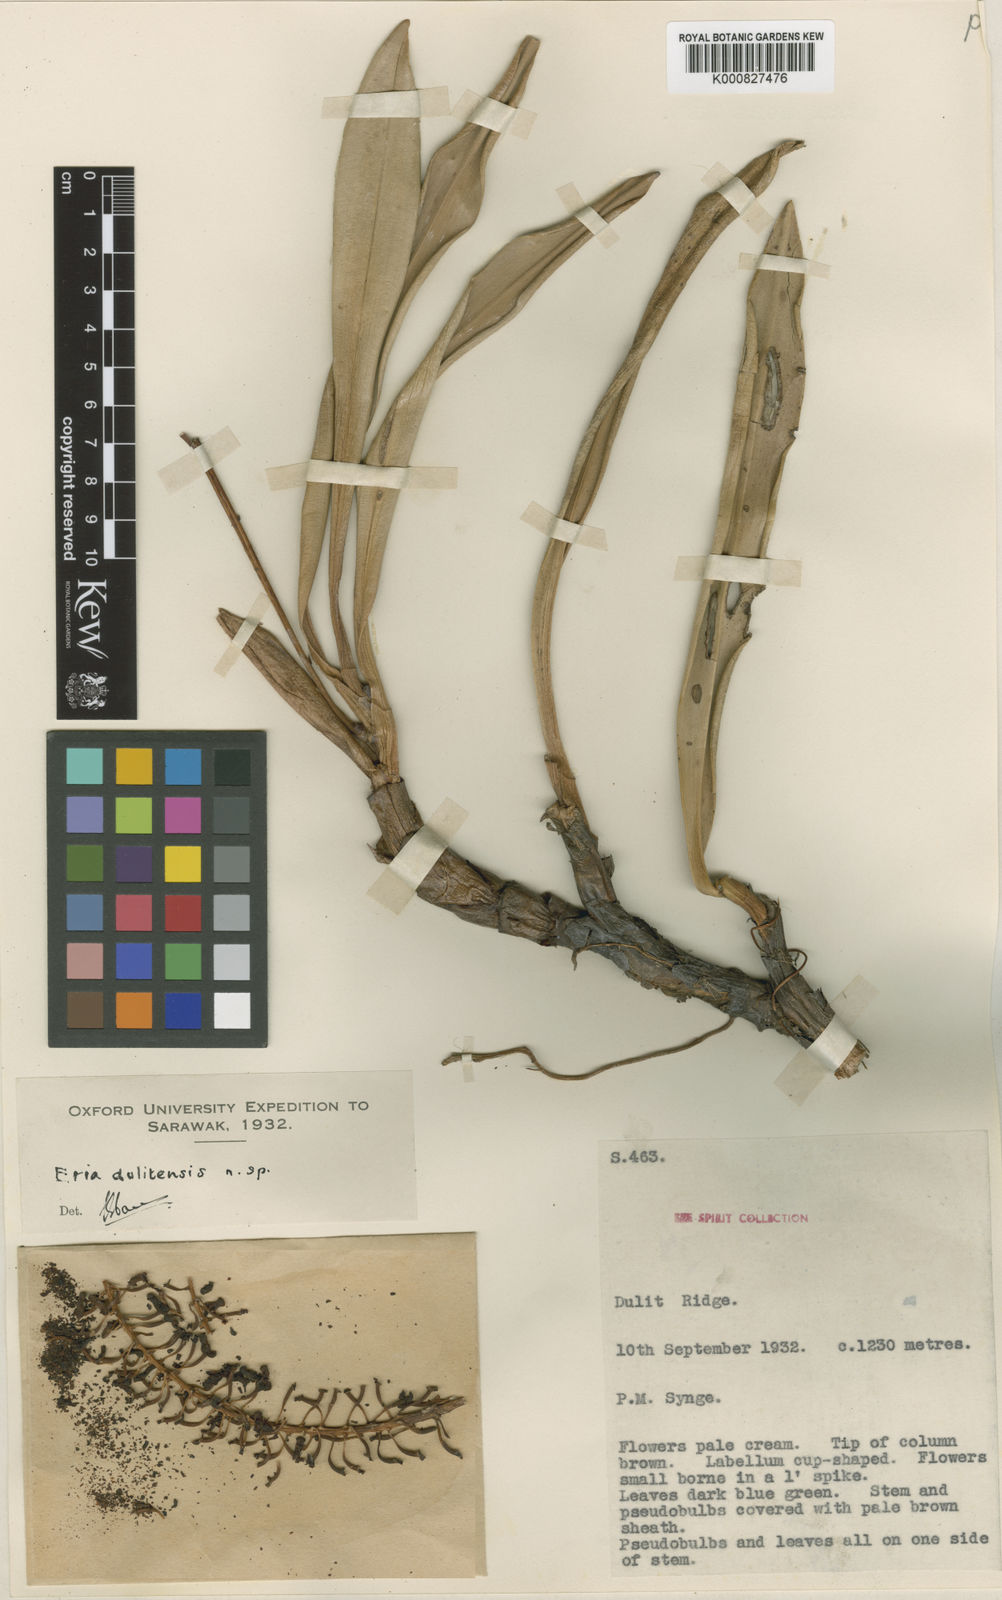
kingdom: Plantae
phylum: Tracheophyta
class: Liliopsida
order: Asparagales
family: Orchidaceae
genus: Aeridostachya
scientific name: Aeridostachya dulitensis
